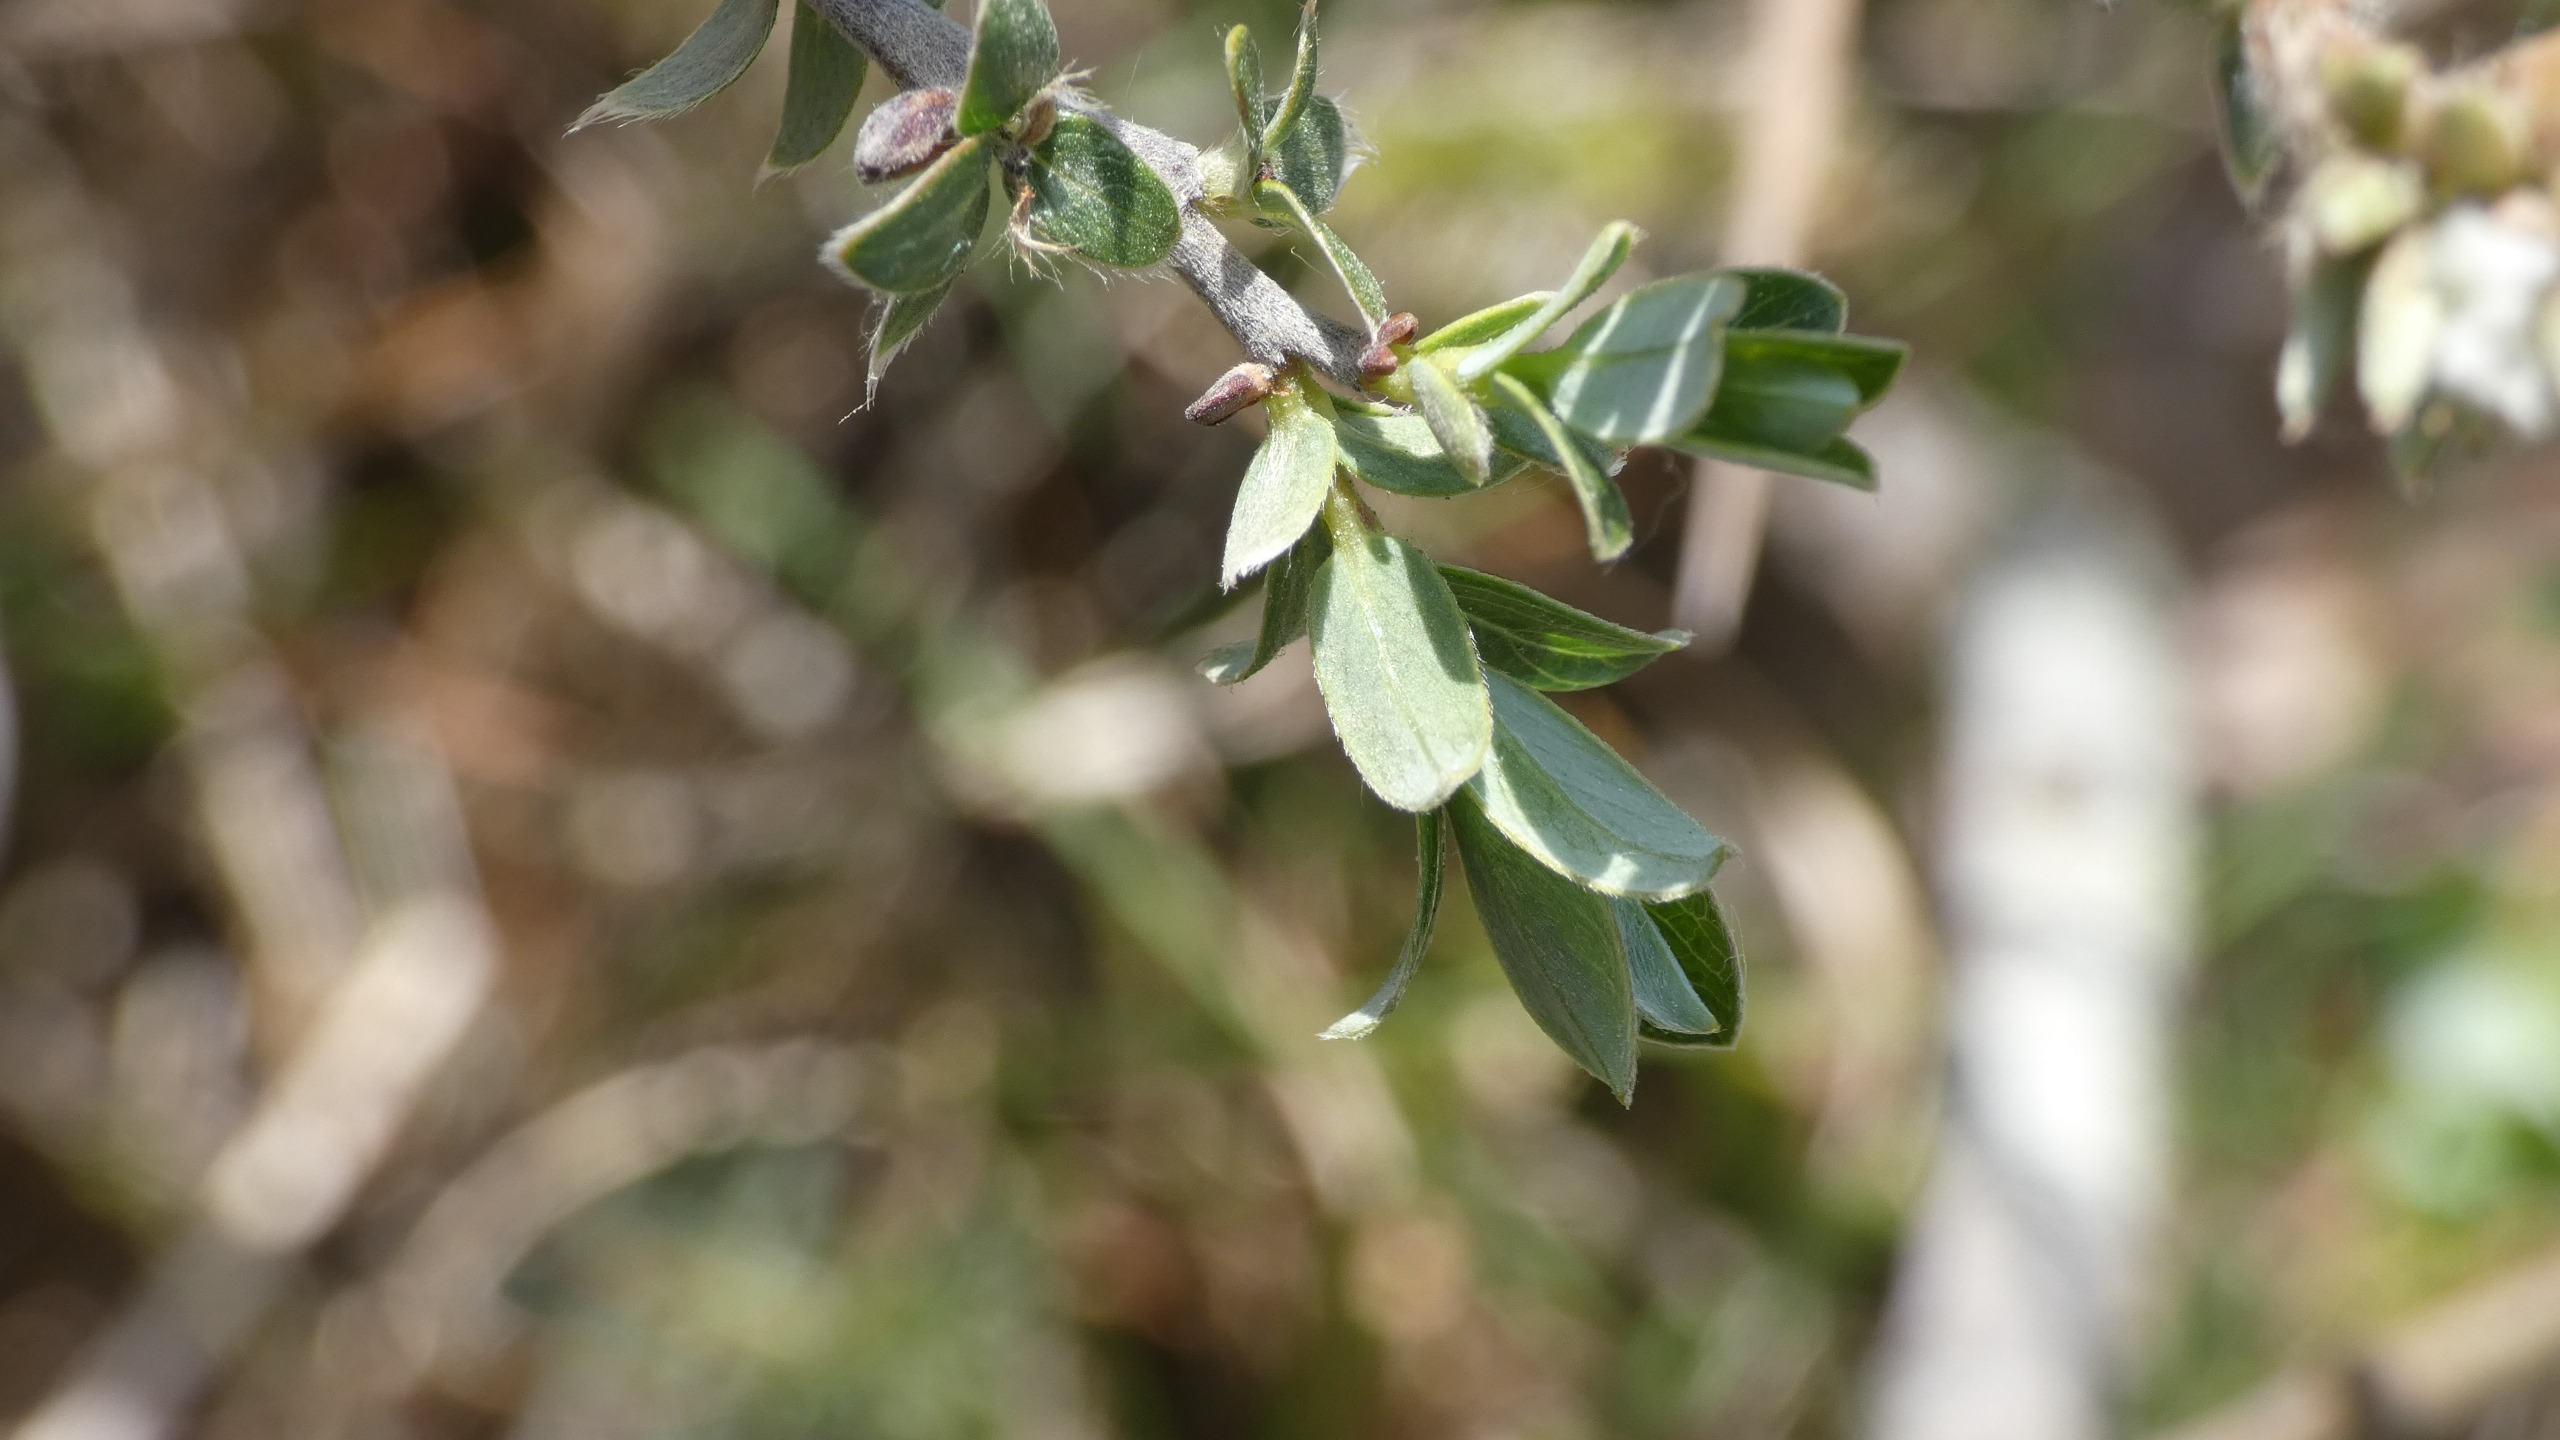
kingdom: Plantae
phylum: Tracheophyta
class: Magnoliopsida
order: Malpighiales
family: Salicaceae
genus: Salix
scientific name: Salix repens
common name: Krybende pil
